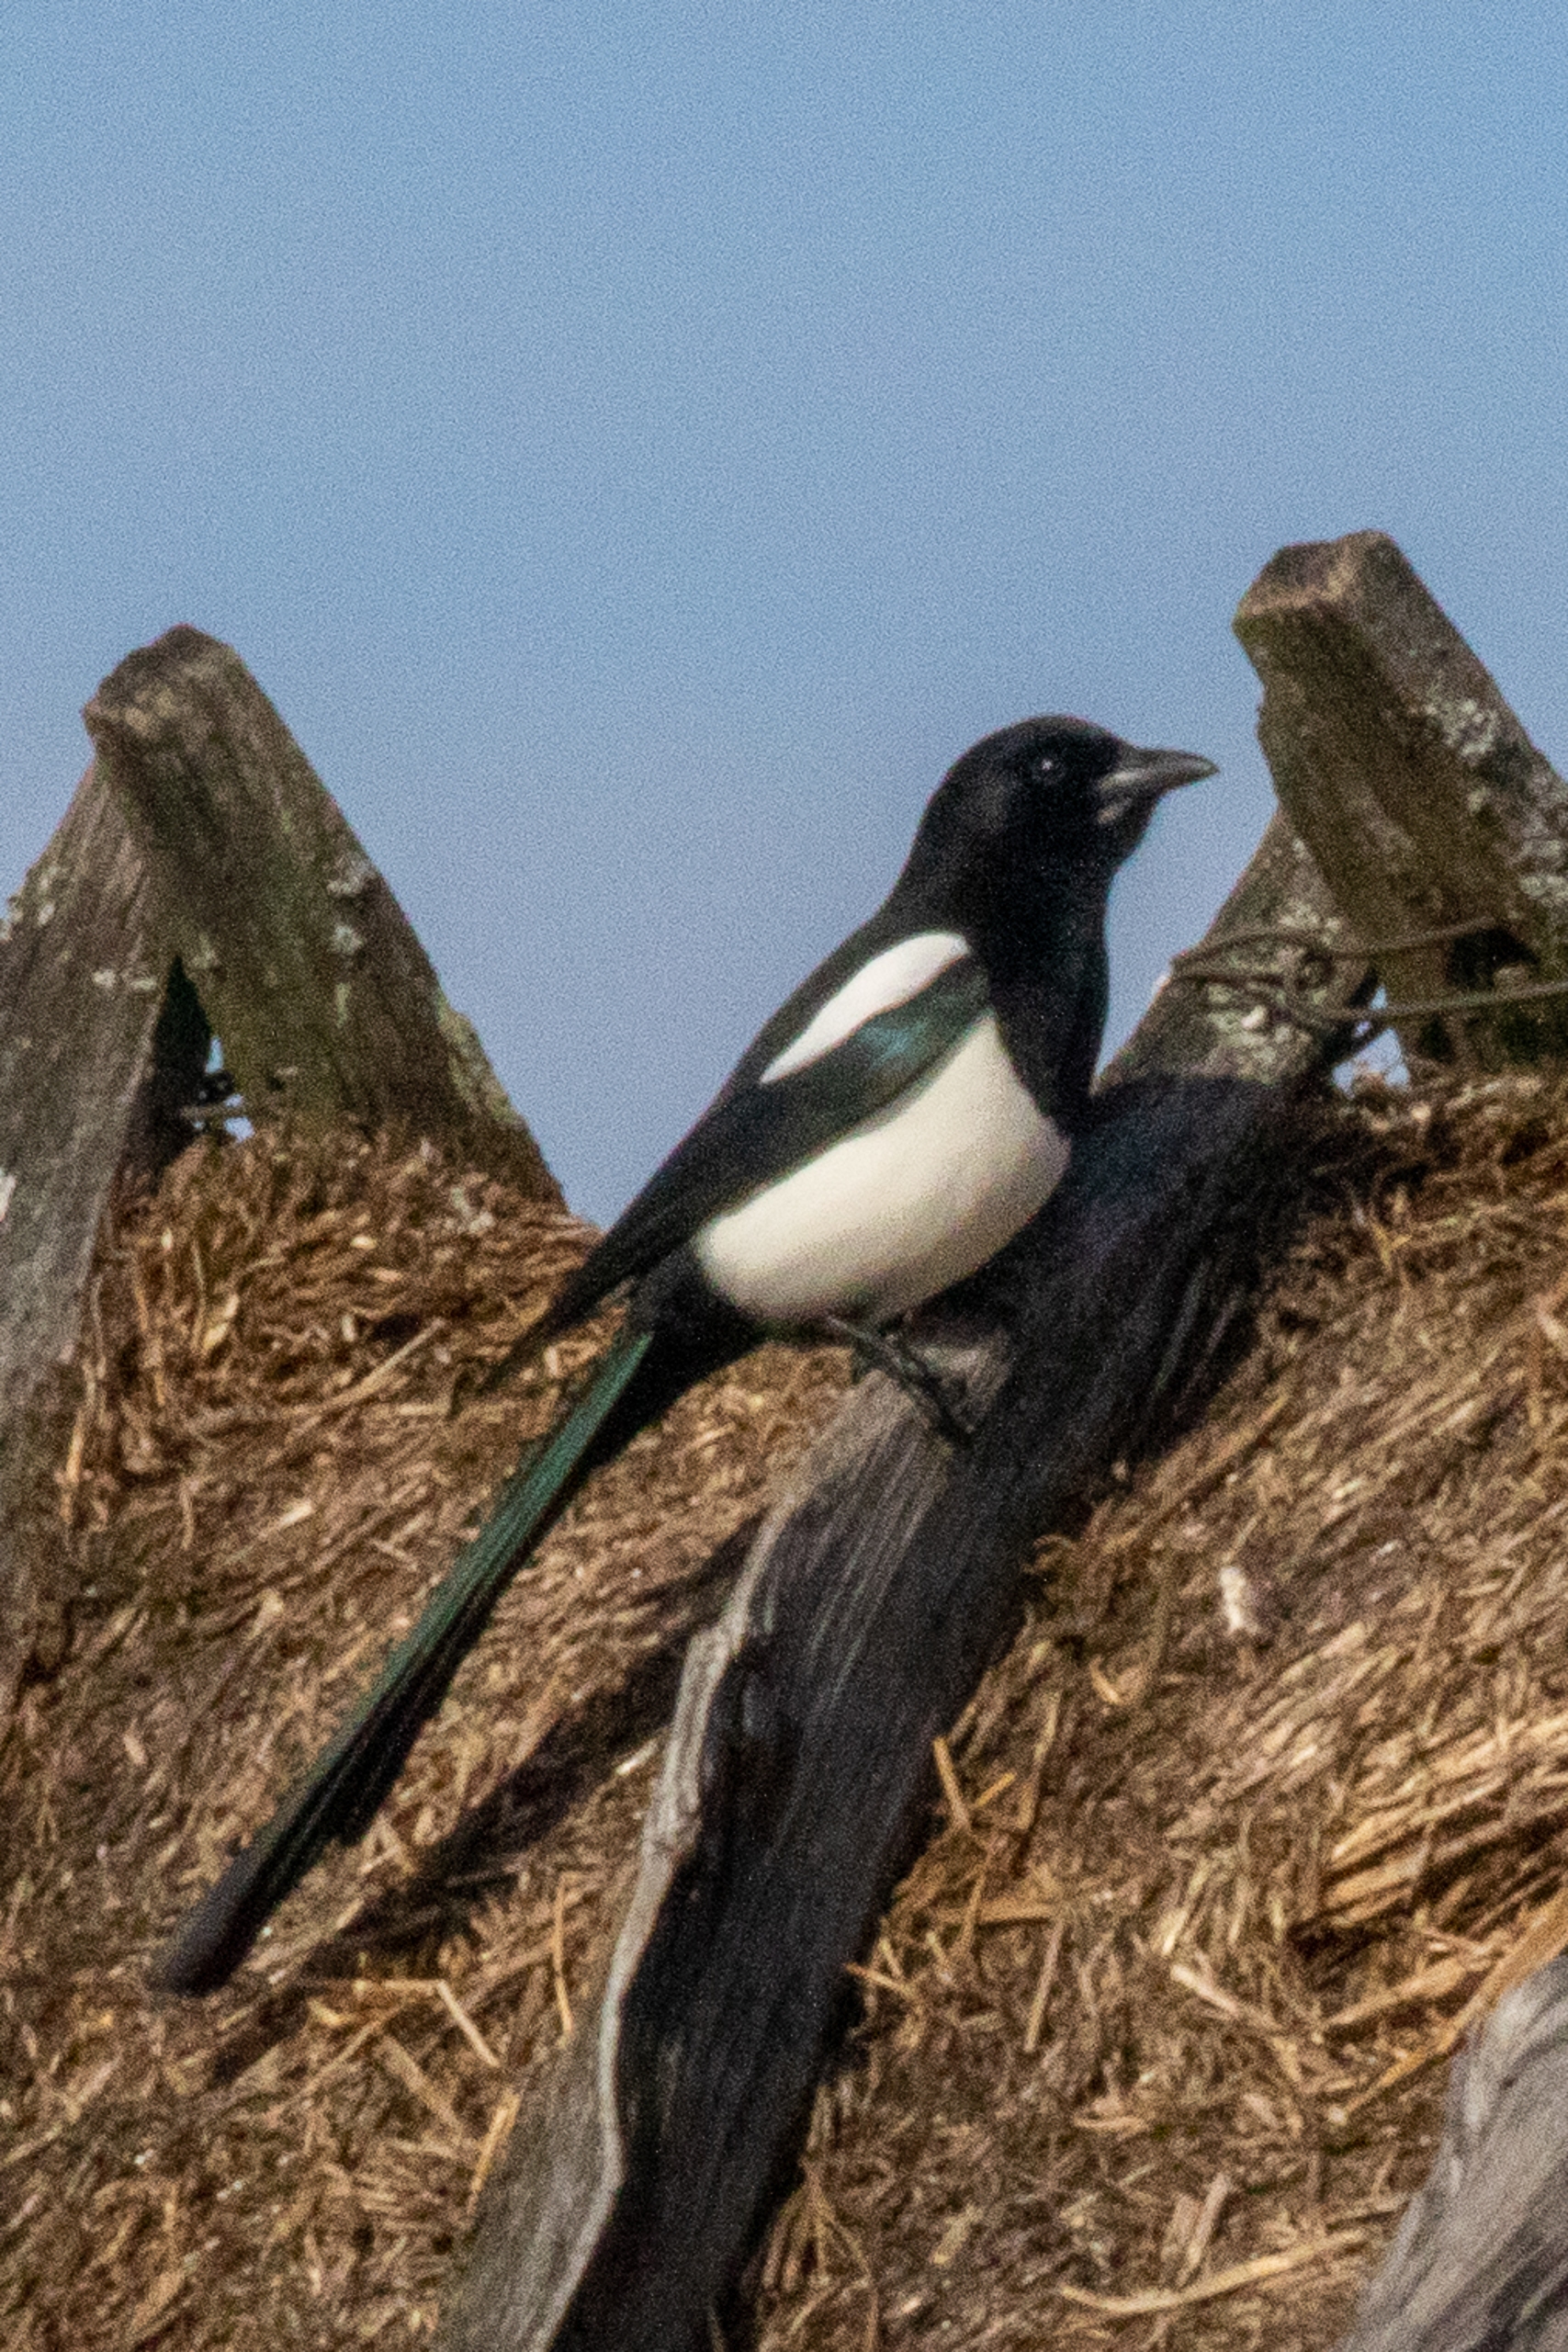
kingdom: Animalia
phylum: Chordata
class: Aves
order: Passeriformes
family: Corvidae
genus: Pica
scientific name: Pica pica
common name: Husskade
